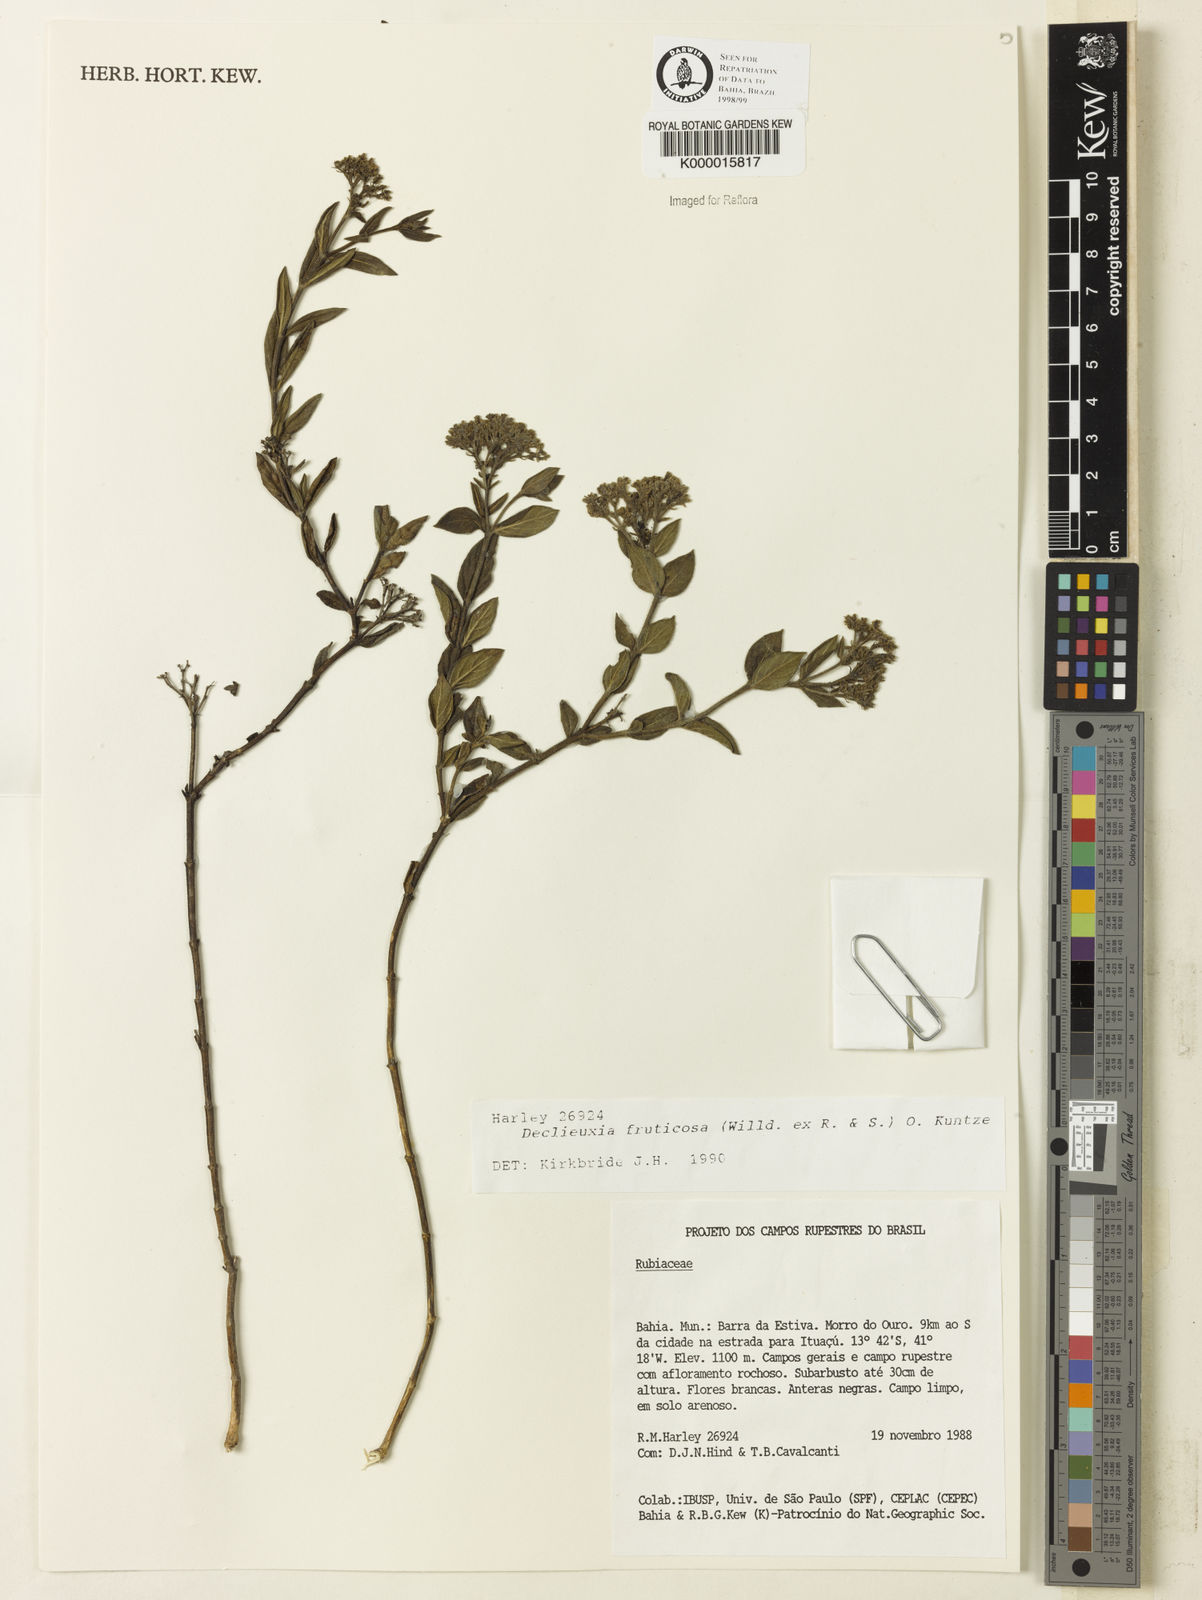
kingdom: Plantae
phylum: Tracheophyta
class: Magnoliopsida
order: Gentianales
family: Rubiaceae
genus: Declieuxia
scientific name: Declieuxia fruticosa
